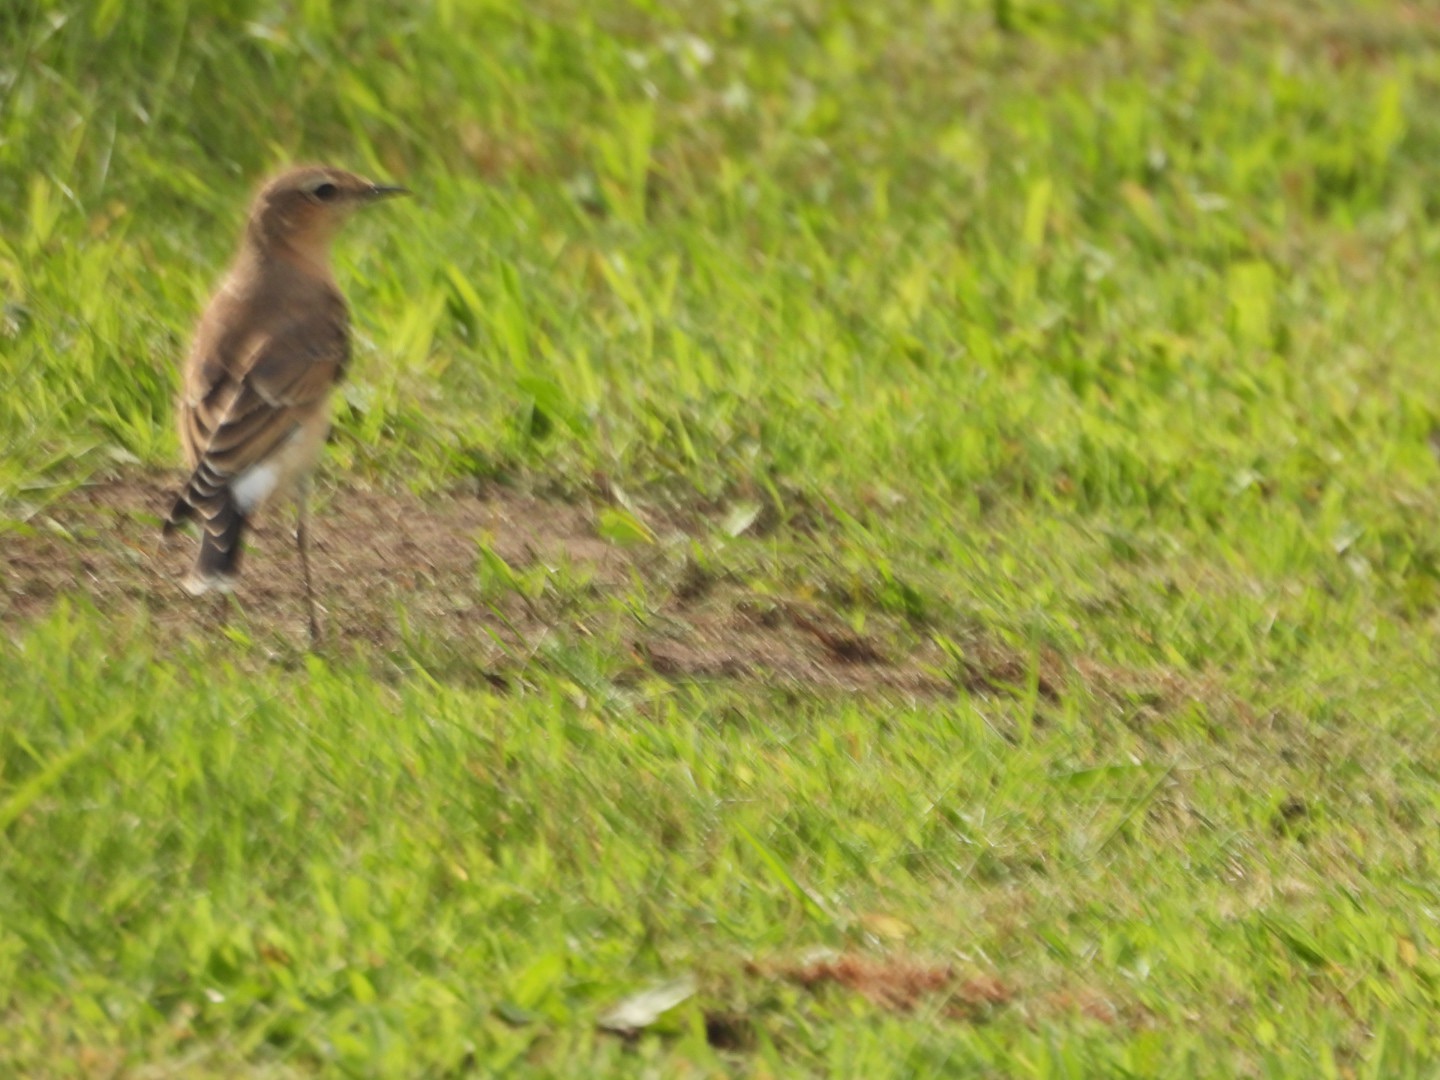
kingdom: Animalia
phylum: Chordata
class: Aves
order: Passeriformes
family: Muscicapidae
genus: Oenanthe
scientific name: Oenanthe oenanthe
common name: Stenpikker
